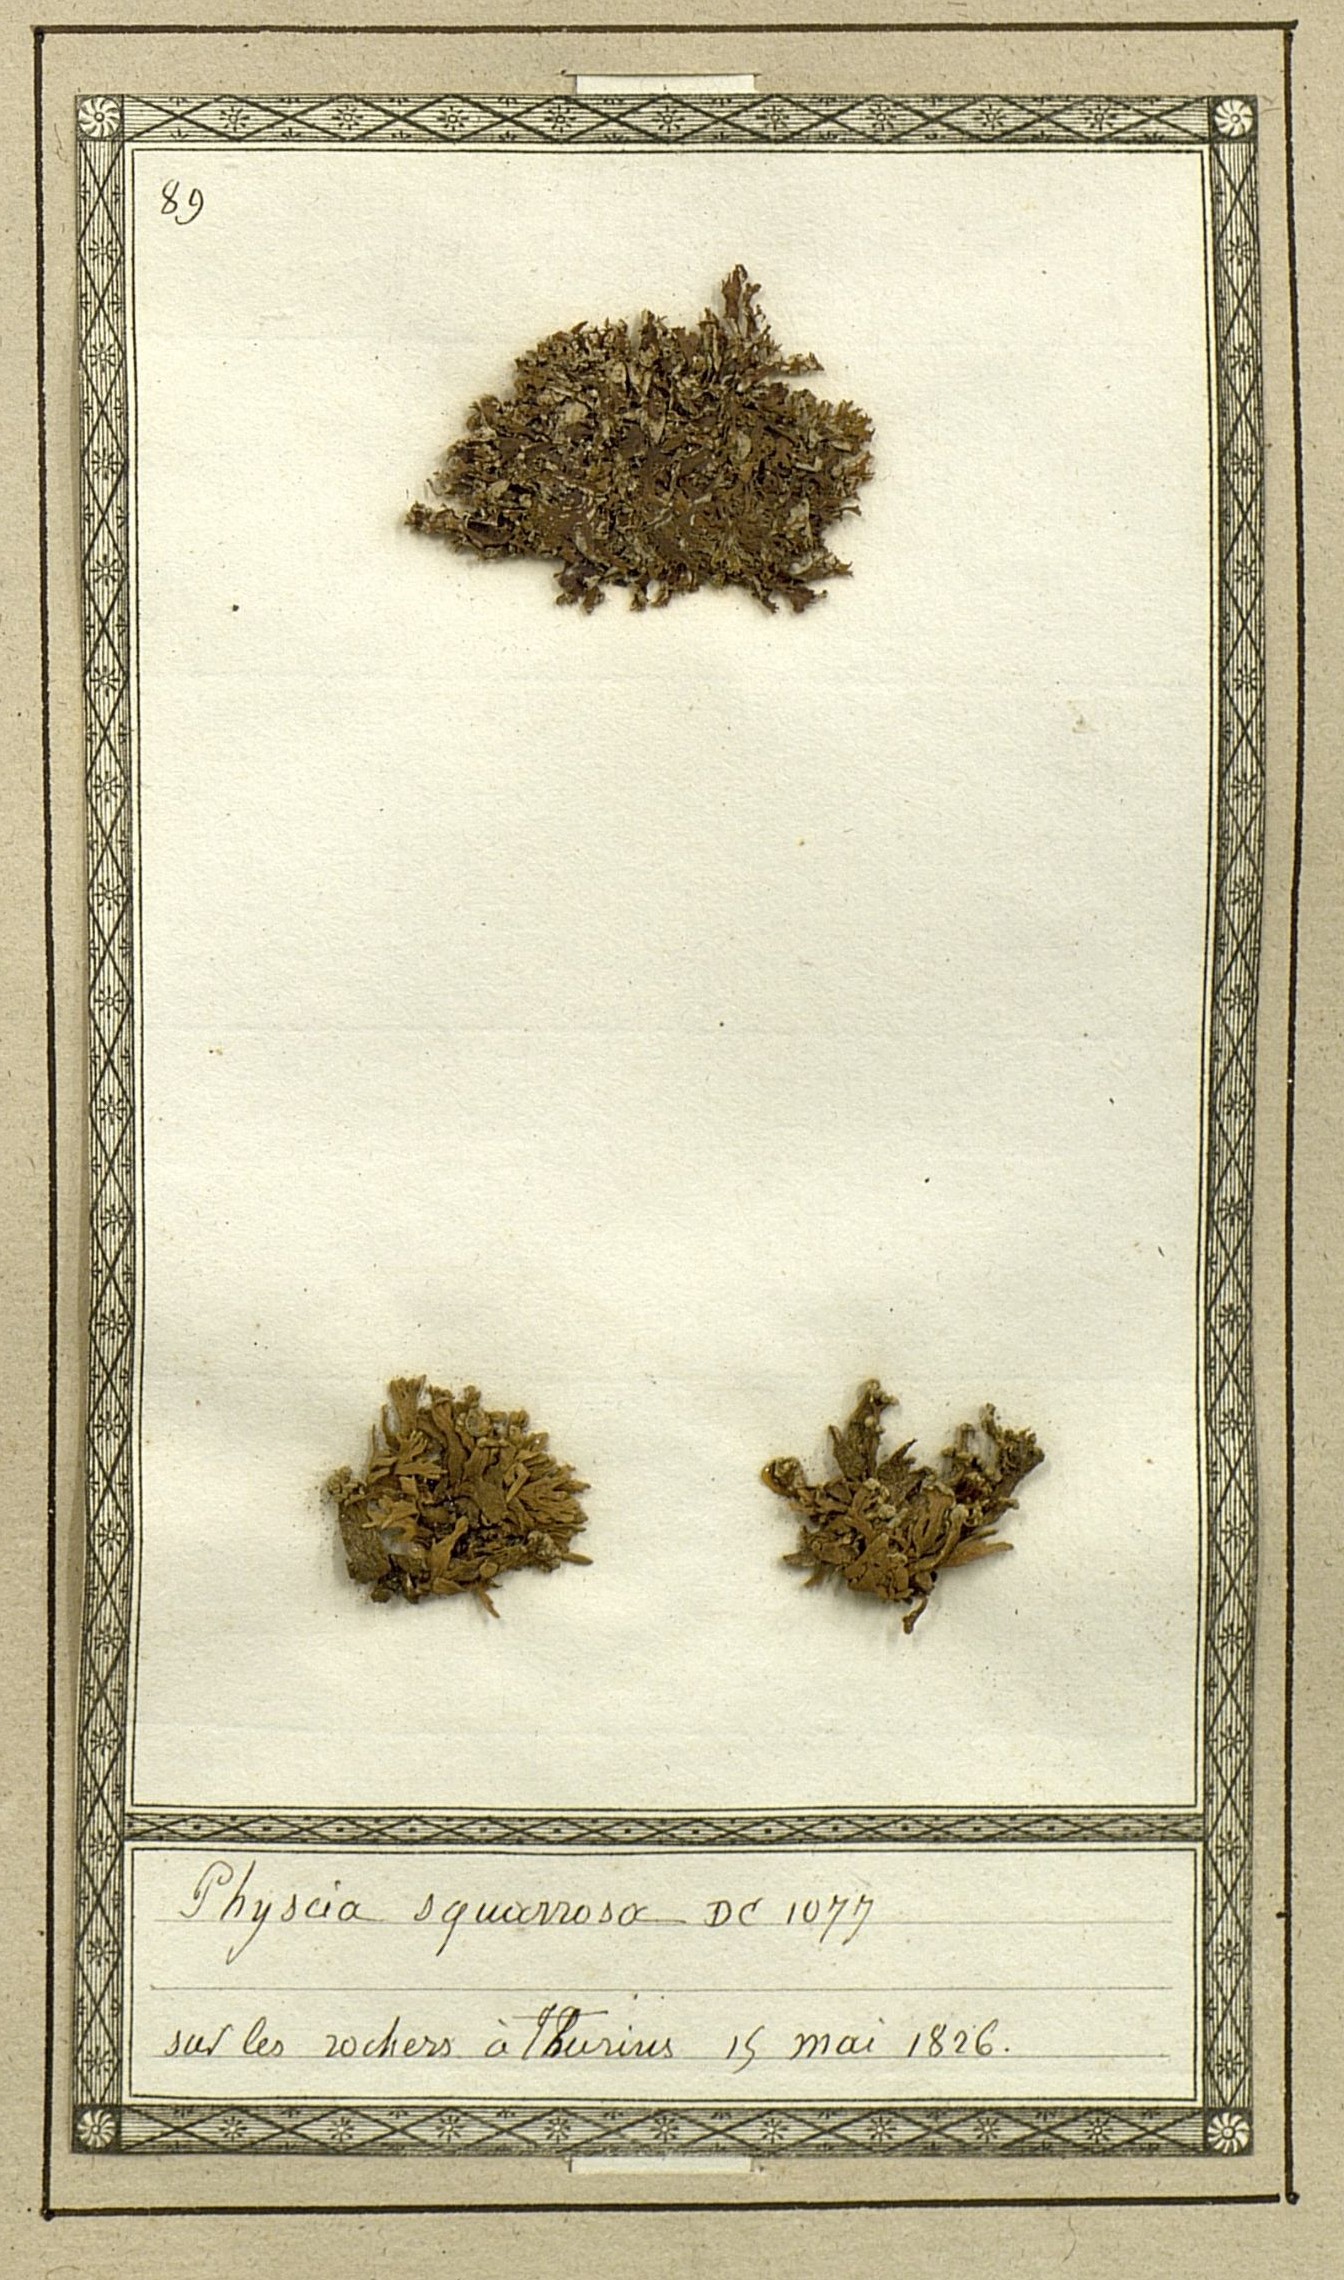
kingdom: Fungi
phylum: Ascomycota
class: Lecanoromycetes
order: Caliciales
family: Physciaceae
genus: Physcia
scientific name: Physcia
